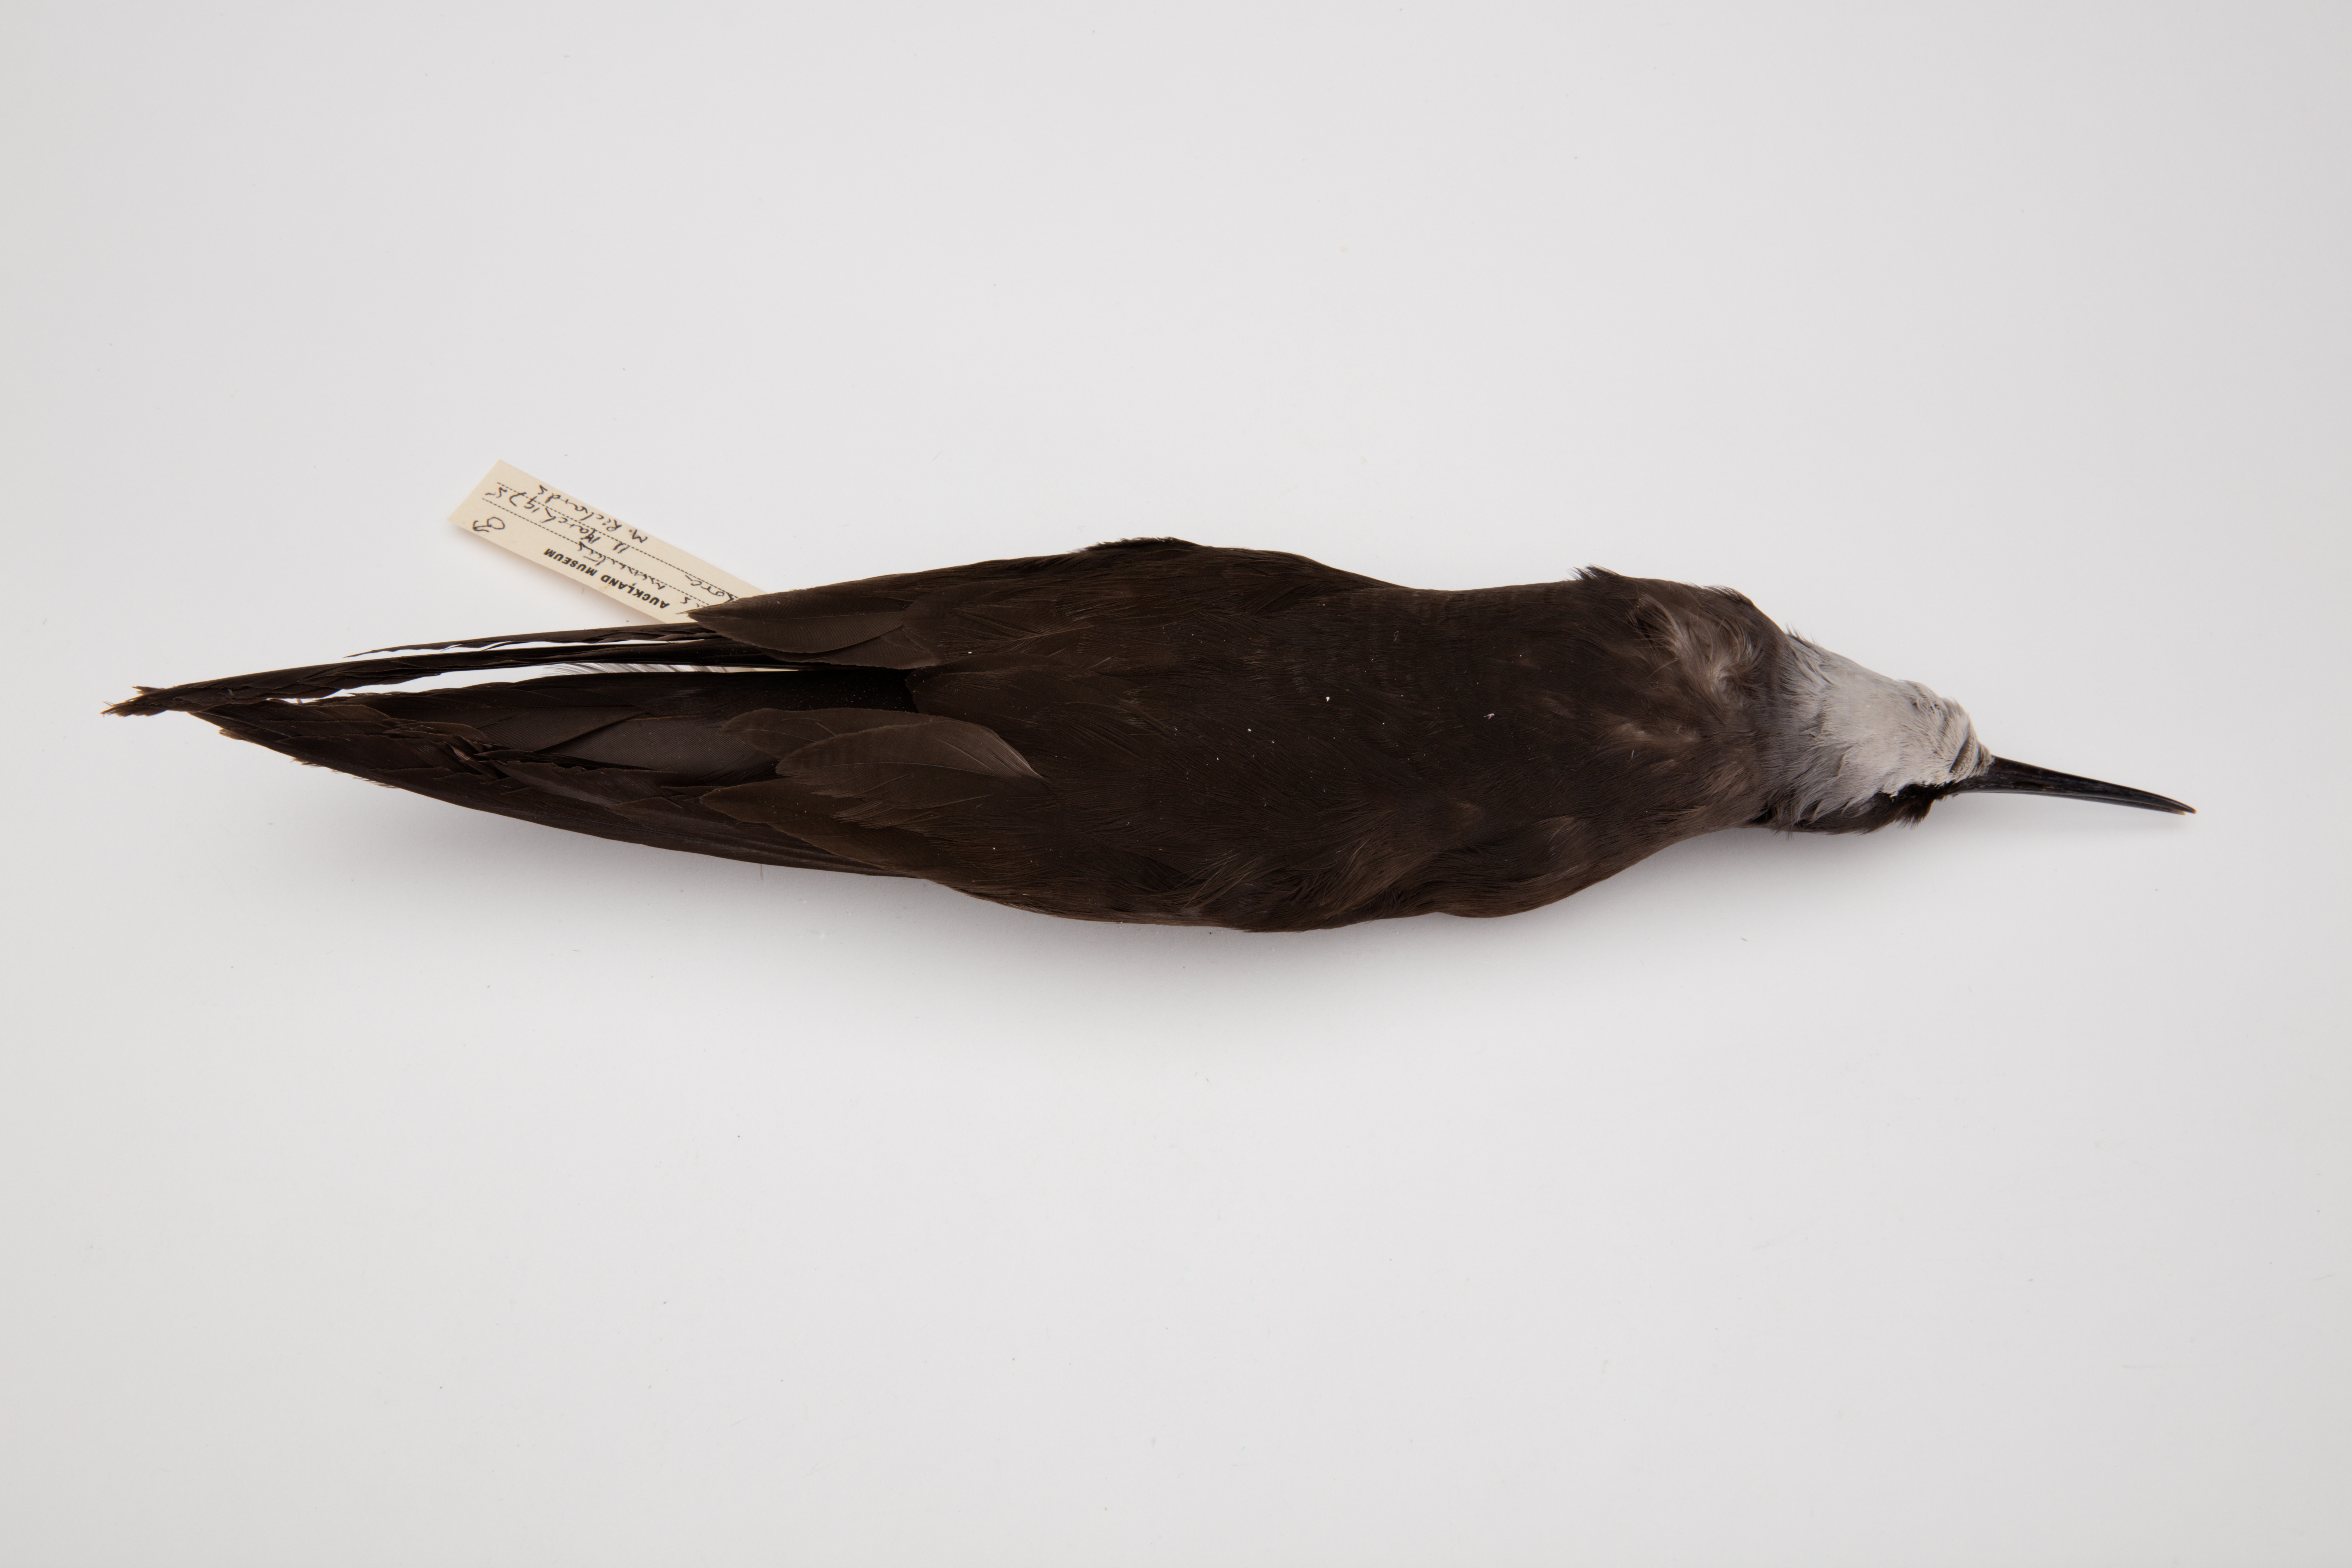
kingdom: Animalia
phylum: Chordata
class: Aves
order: Charadriiformes
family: Laridae
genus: Anous
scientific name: Anous minutus
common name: Black noddy
